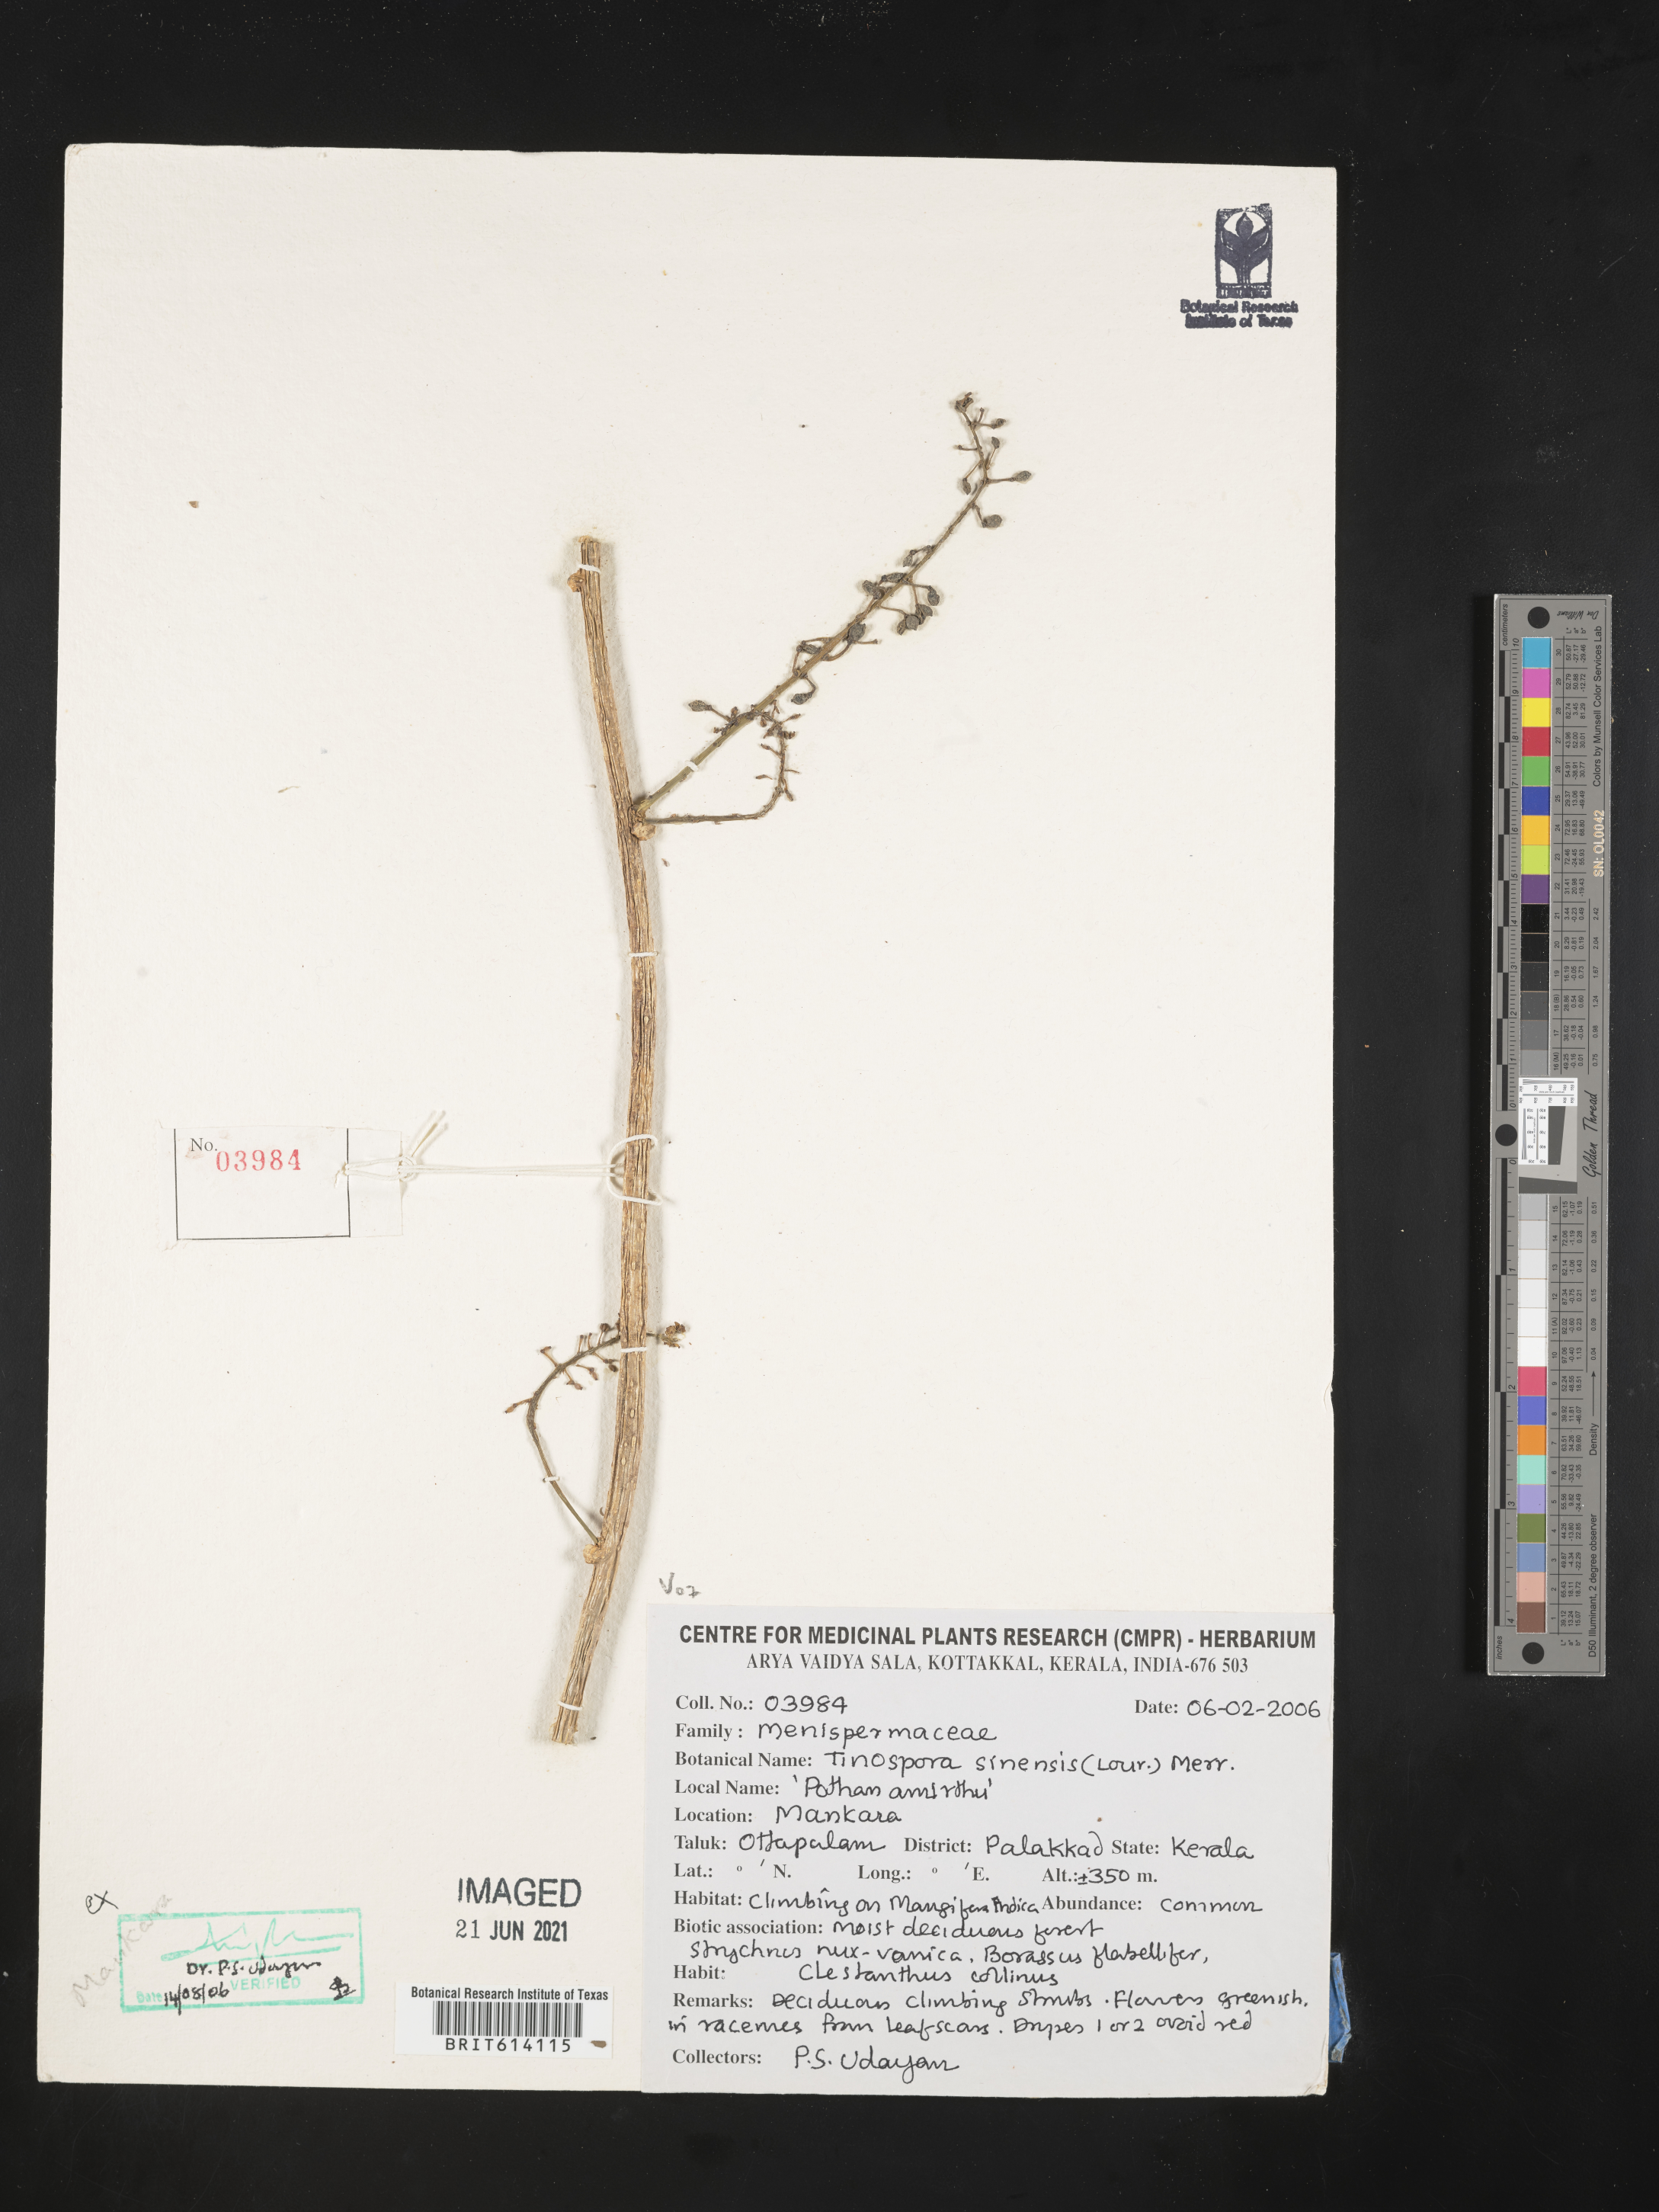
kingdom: Plantae
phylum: Tracheophyta
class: Magnoliopsida
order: Ranunculales
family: Menispermaceae
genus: Tinospora
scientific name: Tinospora sinensis
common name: Chinese tinospora
